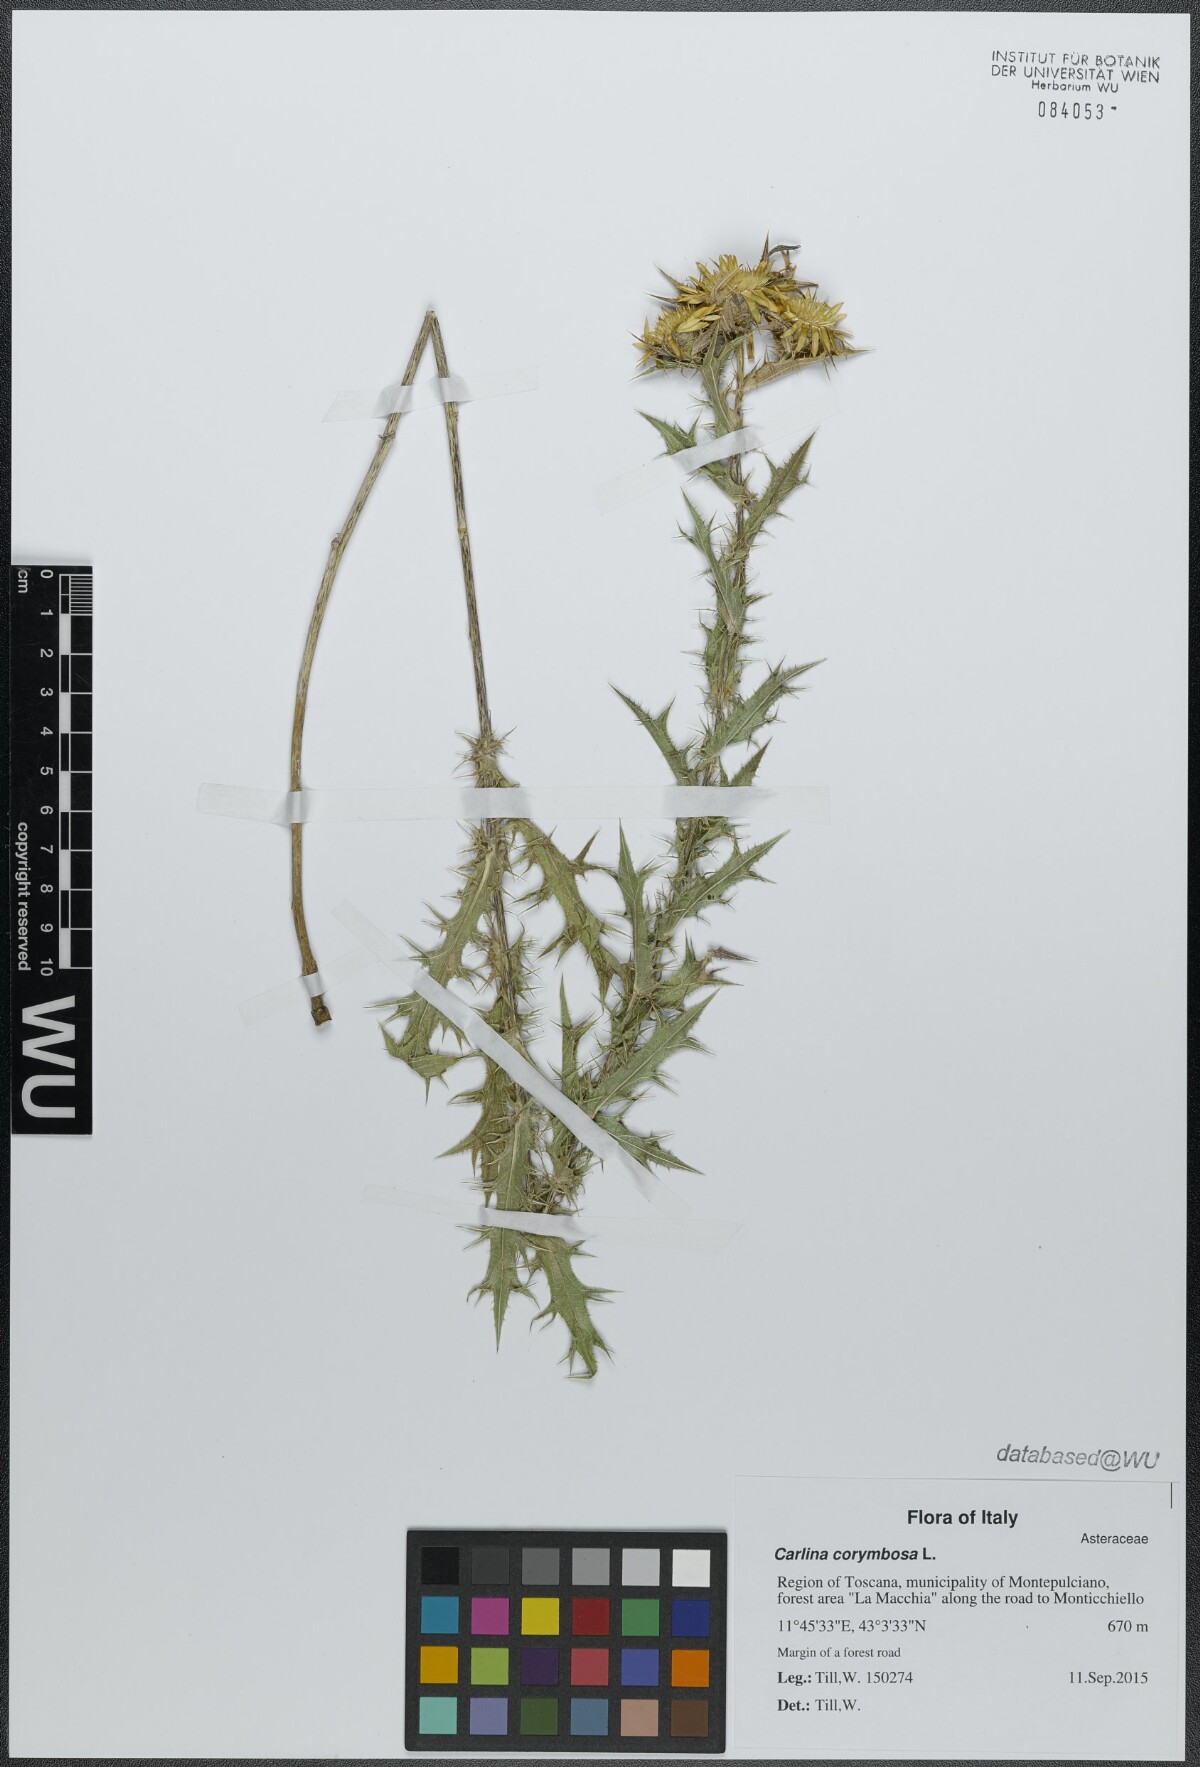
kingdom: Plantae
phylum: Tracheophyta
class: Magnoliopsida
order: Asterales
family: Asteraceae
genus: Carlina
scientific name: Carlina corymbosa
